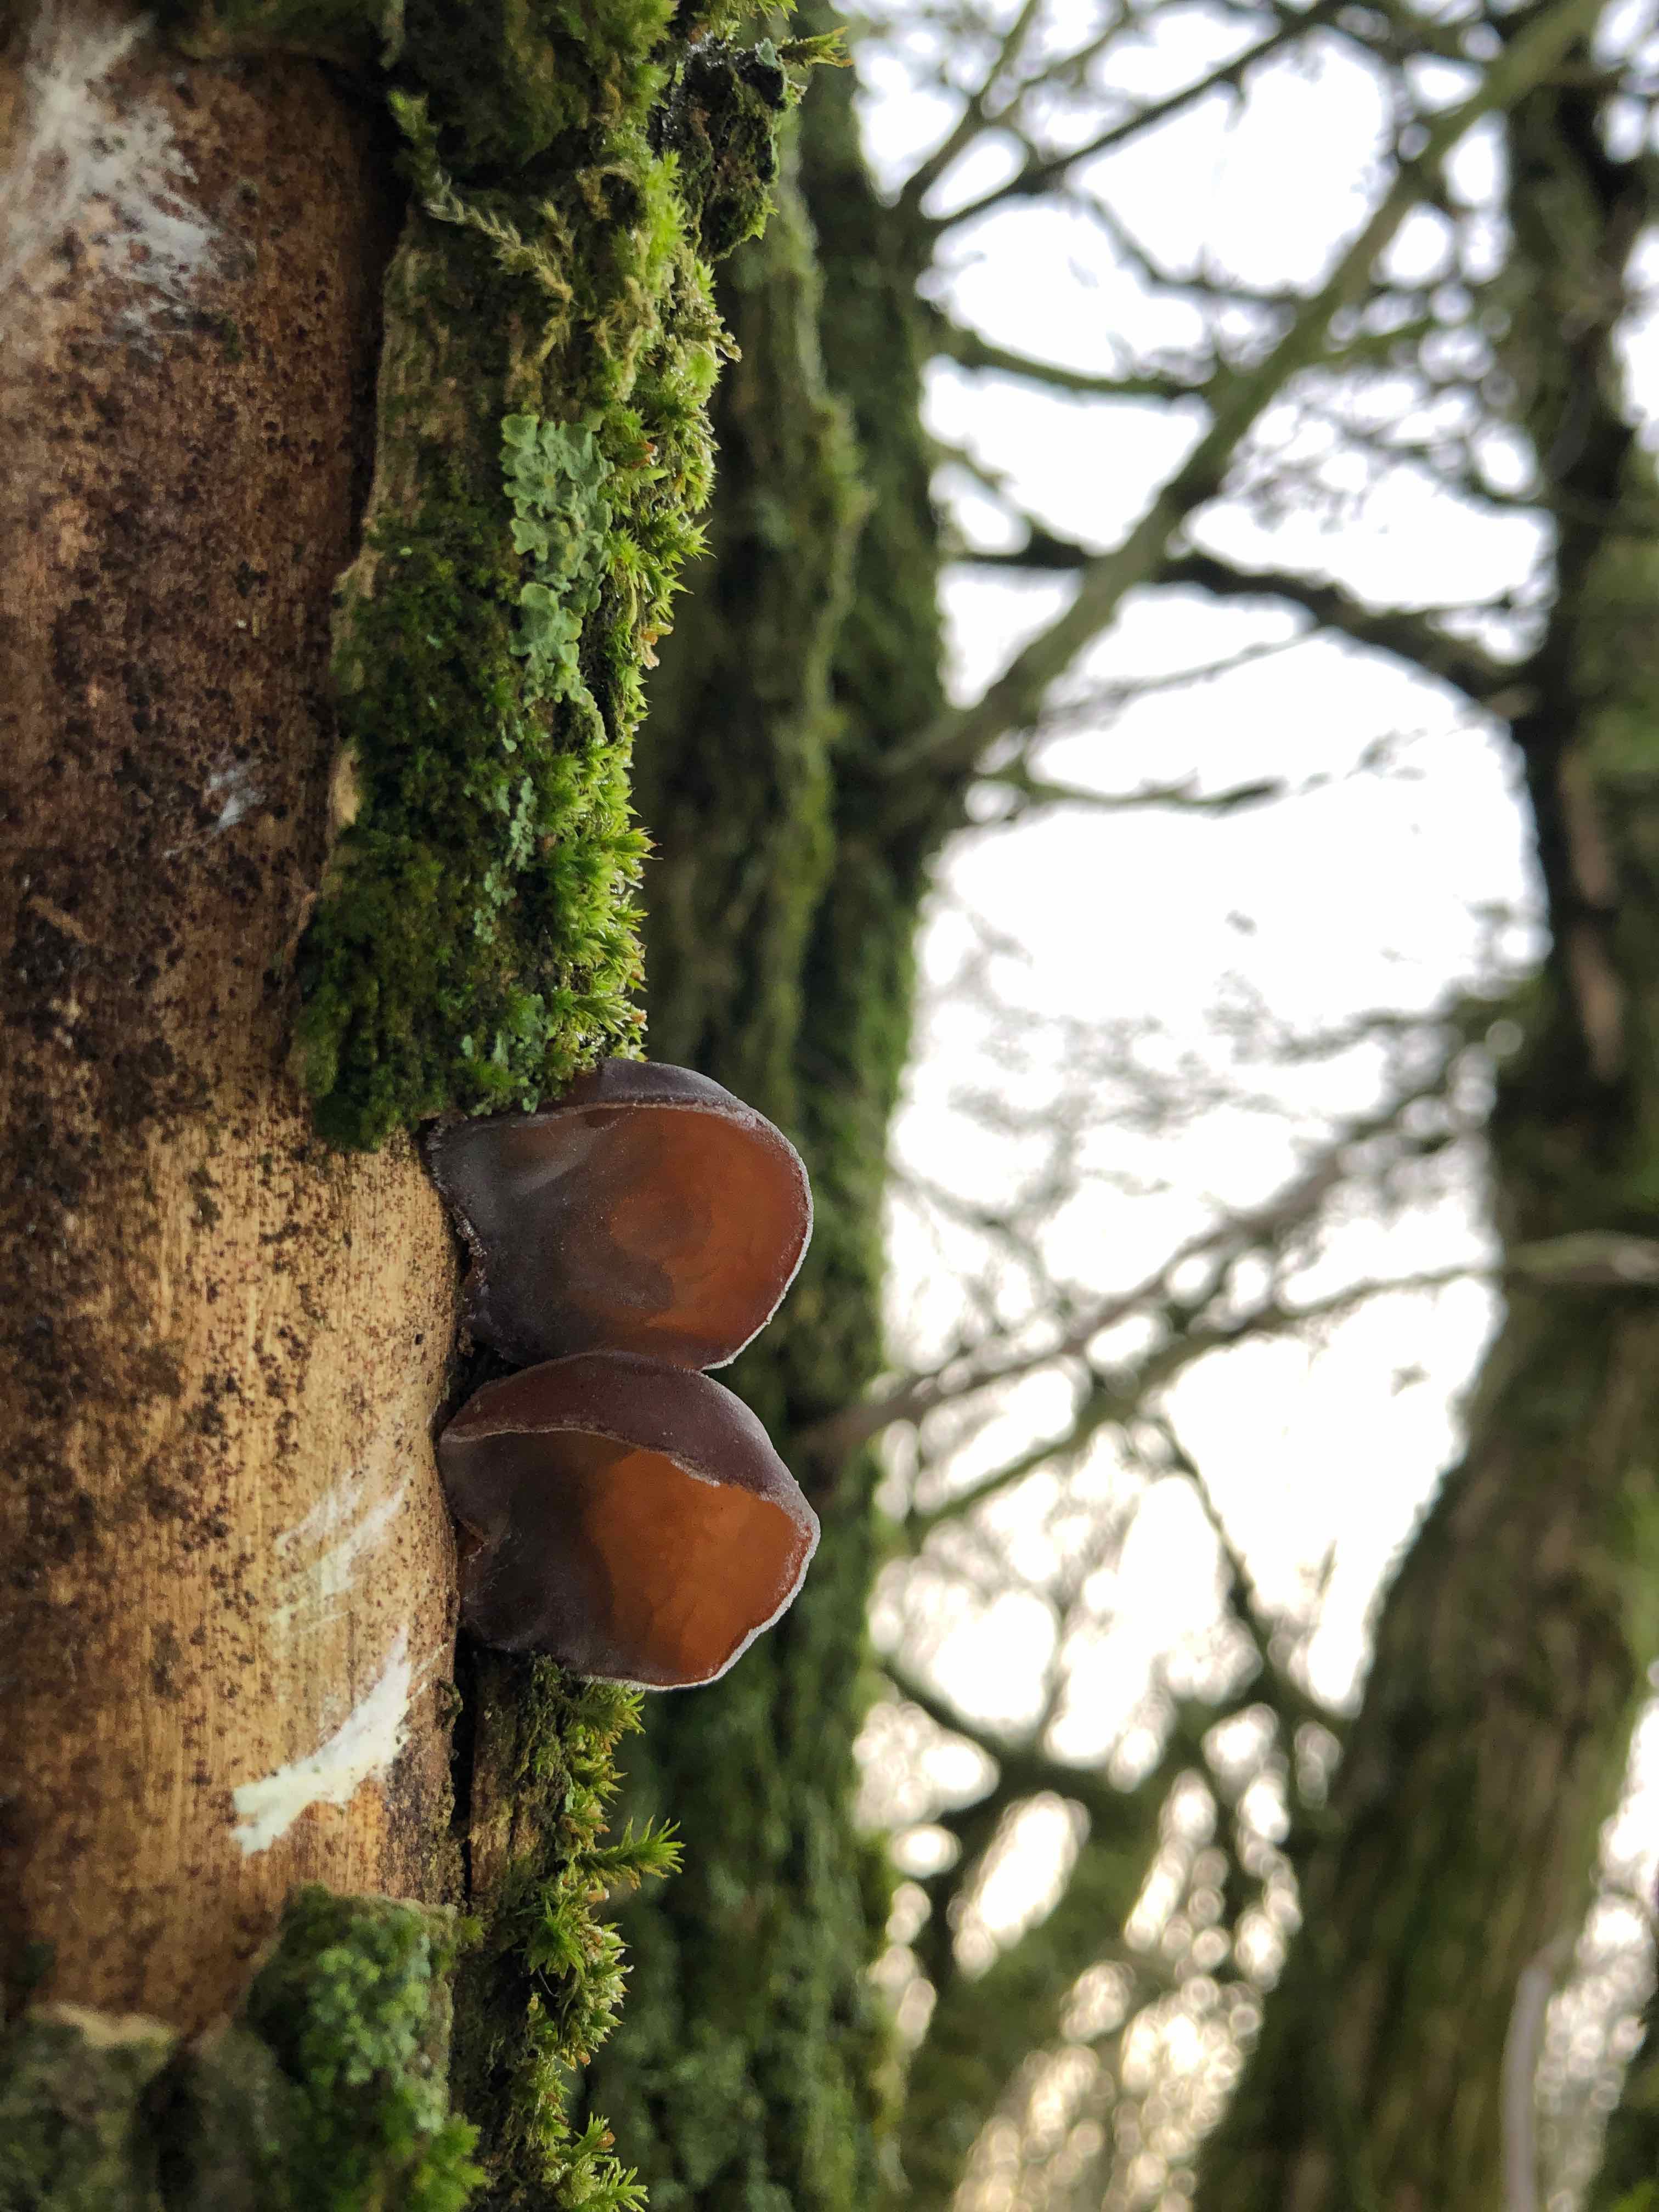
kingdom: Fungi
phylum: Basidiomycota
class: Agaricomycetes
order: Auriculariales
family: Auriculariaceae
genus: Auricularia
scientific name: Auricularia auricula-judae
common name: almindelig judasøre
